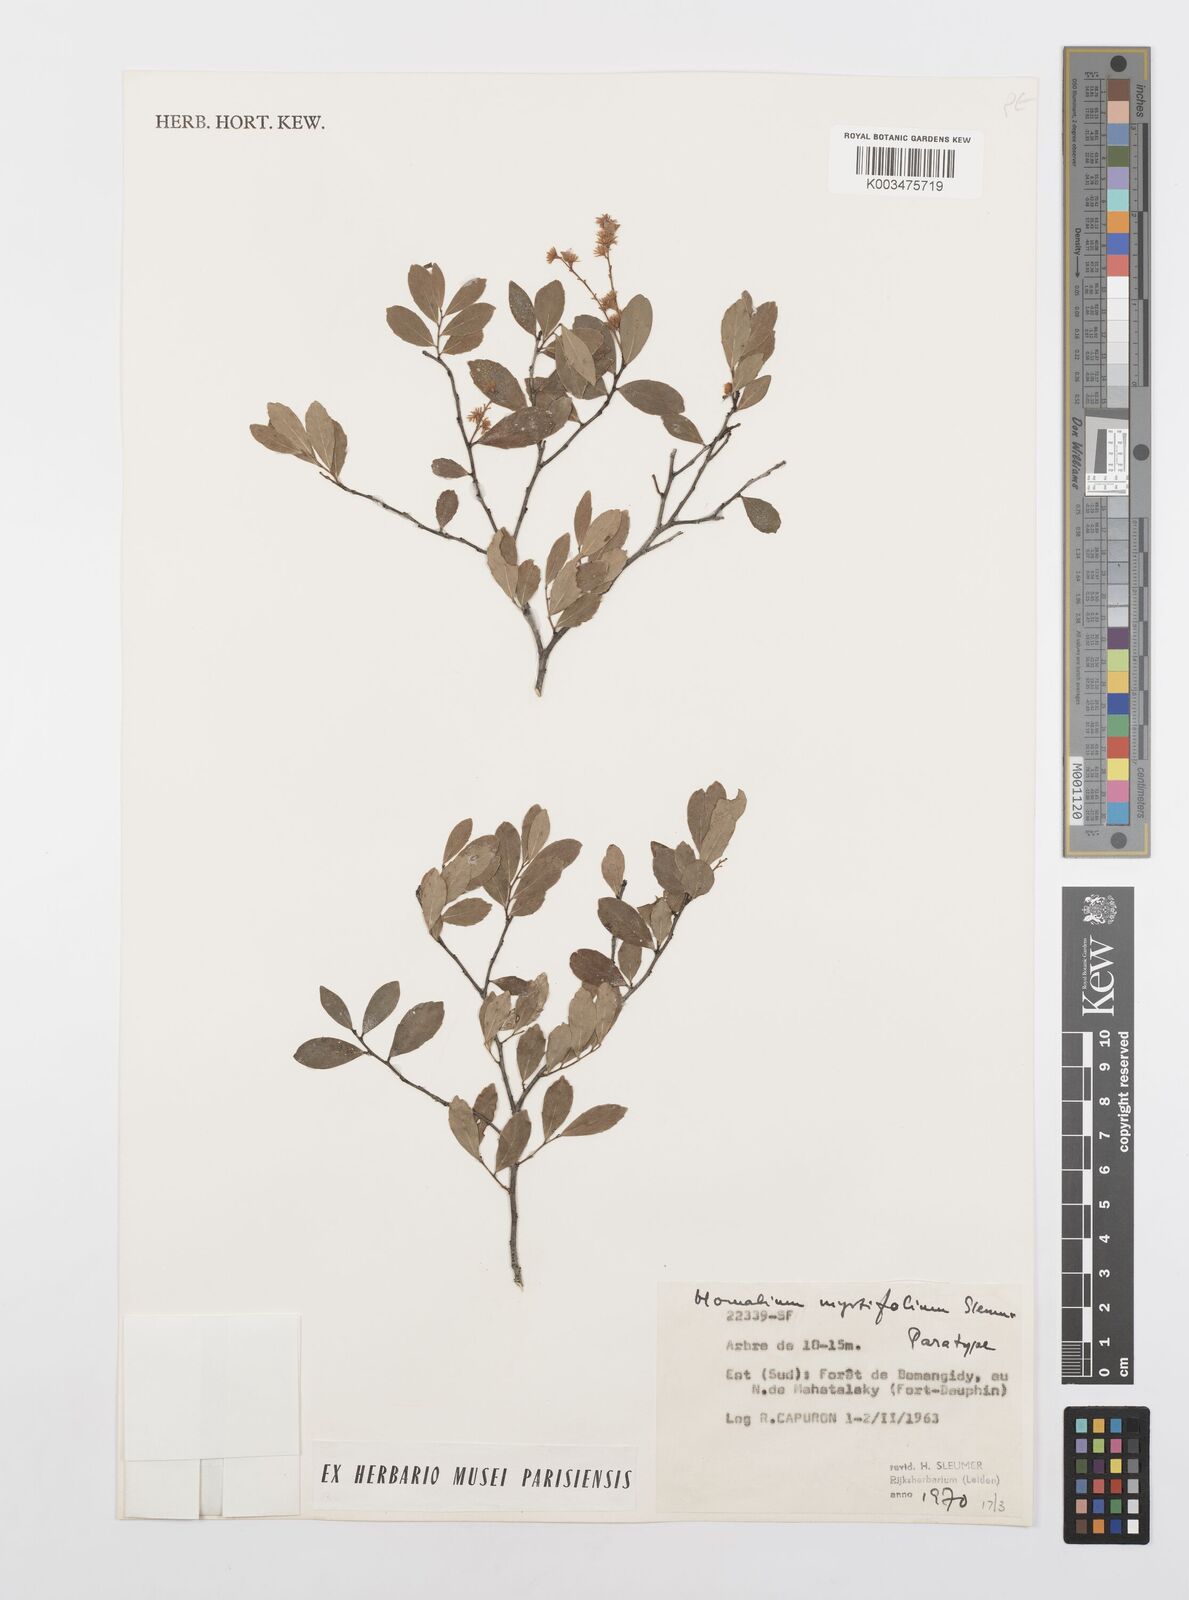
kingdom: Plantae
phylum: Tracheophyta
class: Magnoliopsida
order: Malpighiales
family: Salicaceae
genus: Homalium
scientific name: Homalium myrtifolium
